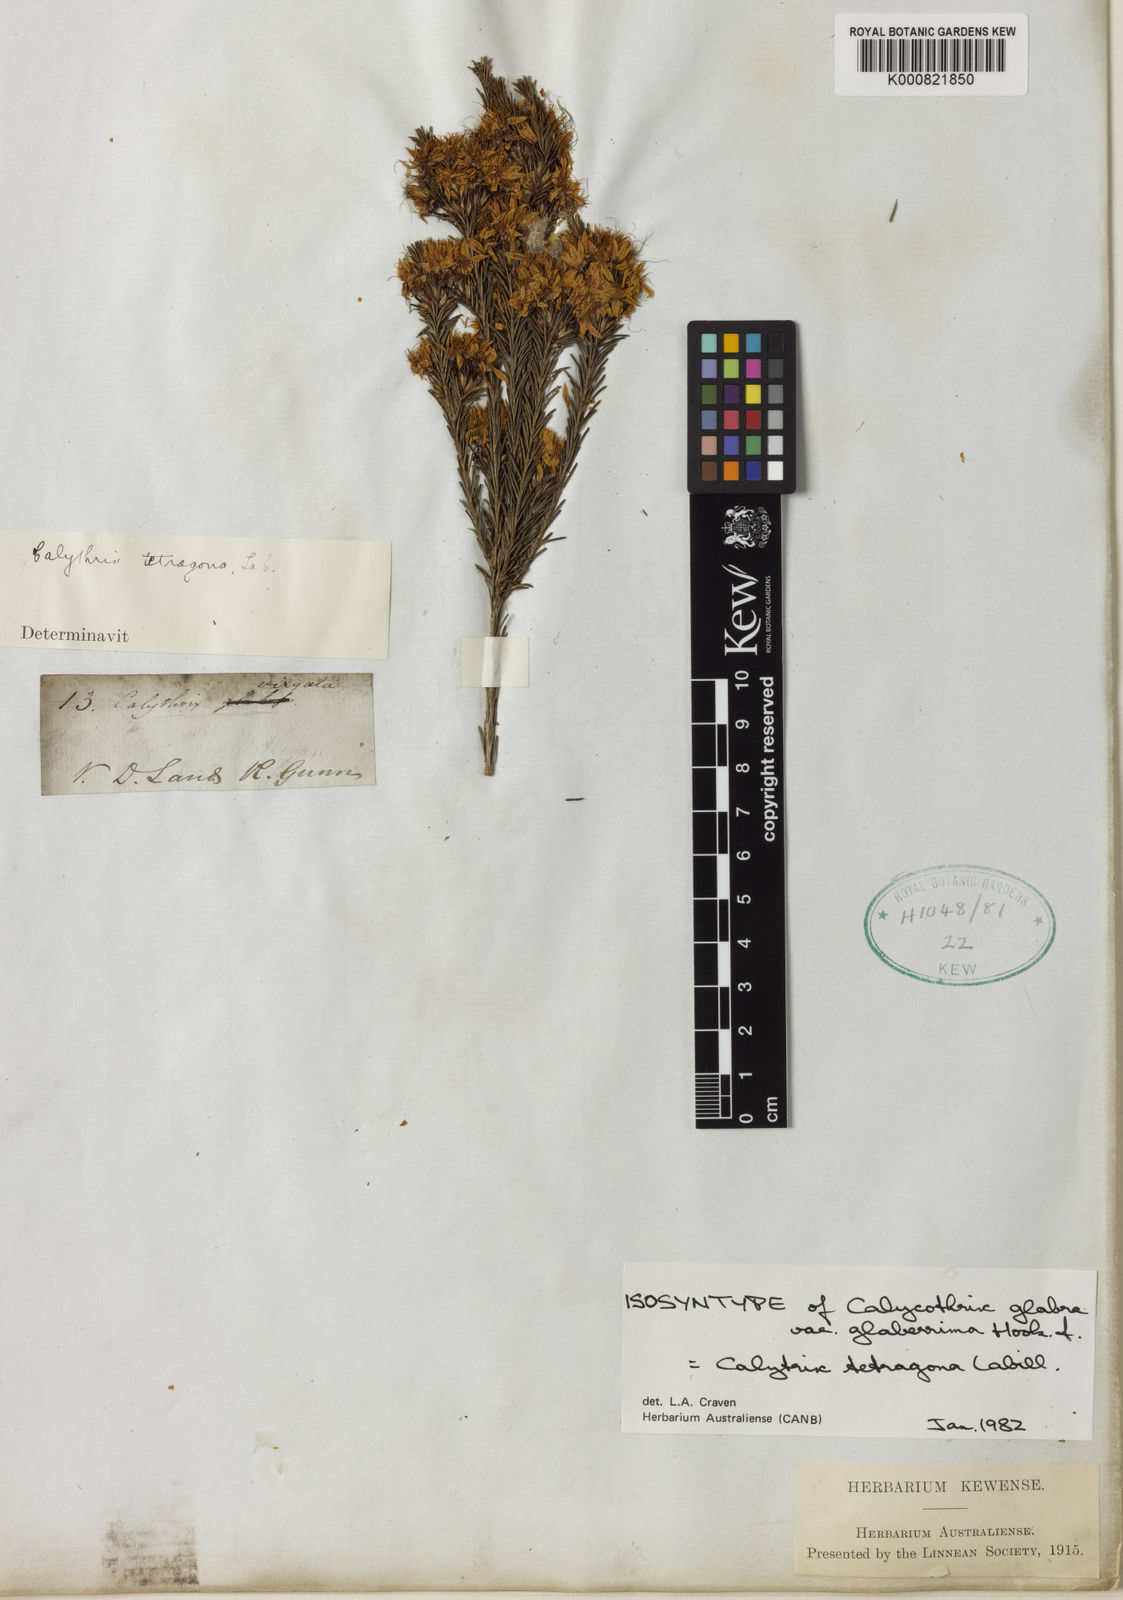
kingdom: Plantae
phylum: Tracheophyta
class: Magnoliopsida
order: Myrtales
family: Myrtaceae
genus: Calytrix
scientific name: Calytrix tetragona
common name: Common fringe myrtle
